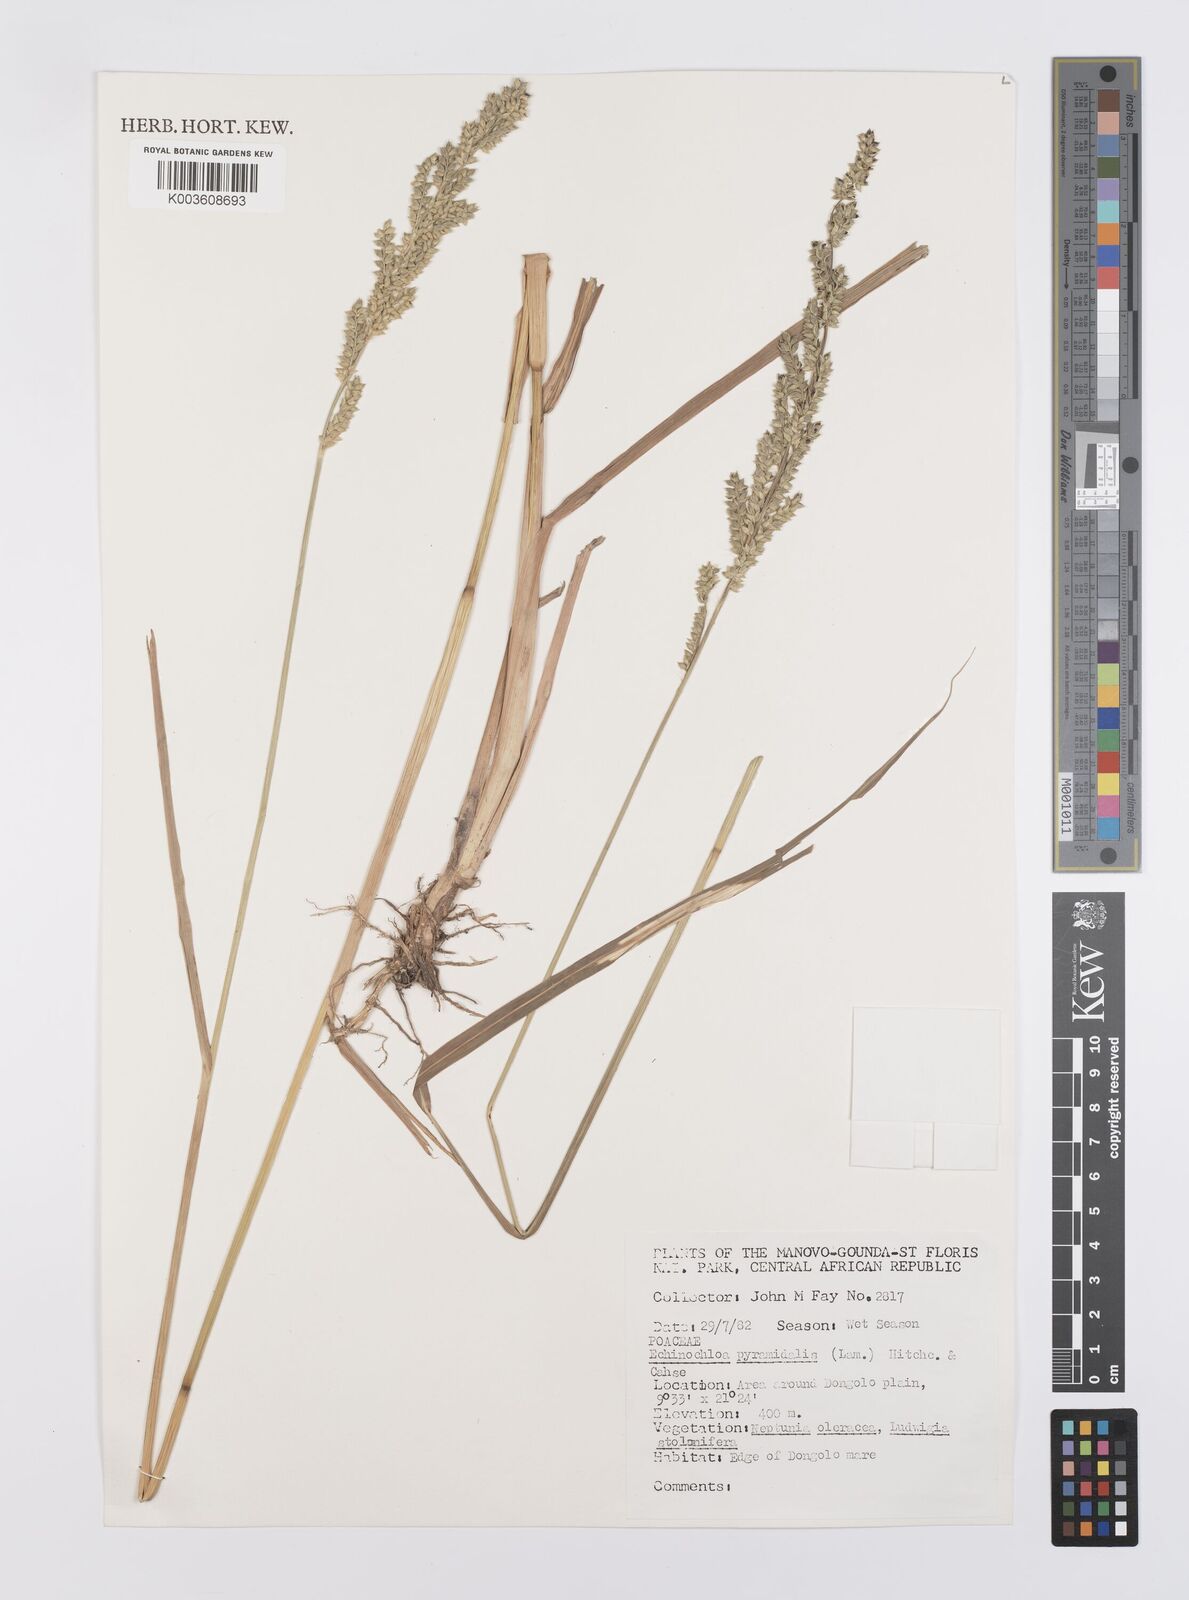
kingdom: Plantae
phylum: Tracheophyta
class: Liliopsida
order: Poales
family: Poaceae
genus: Echinochloa
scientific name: Echinochloa pyramidalis
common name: Antelope grass
